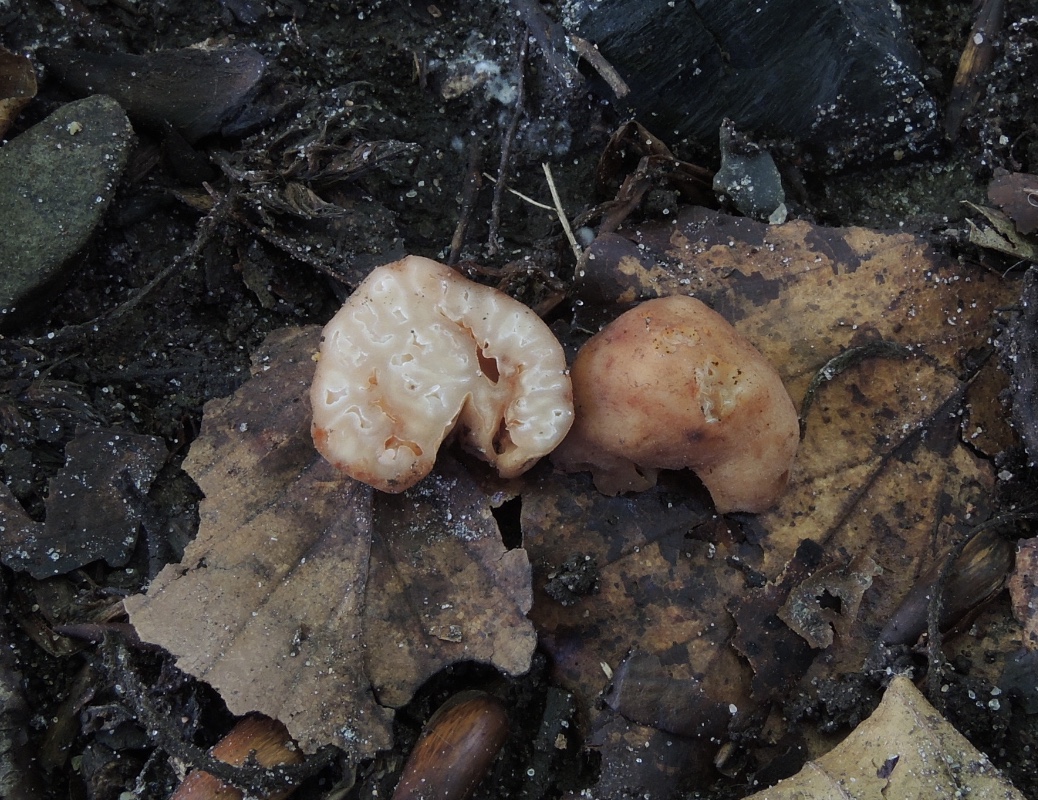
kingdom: Fungi
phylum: Ascomycota
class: Pezizomycetes
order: Pezizales
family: Discinaceae
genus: Hydnotrya
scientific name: Hydnotrya tulasnei
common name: almindelig foldtrøffel
